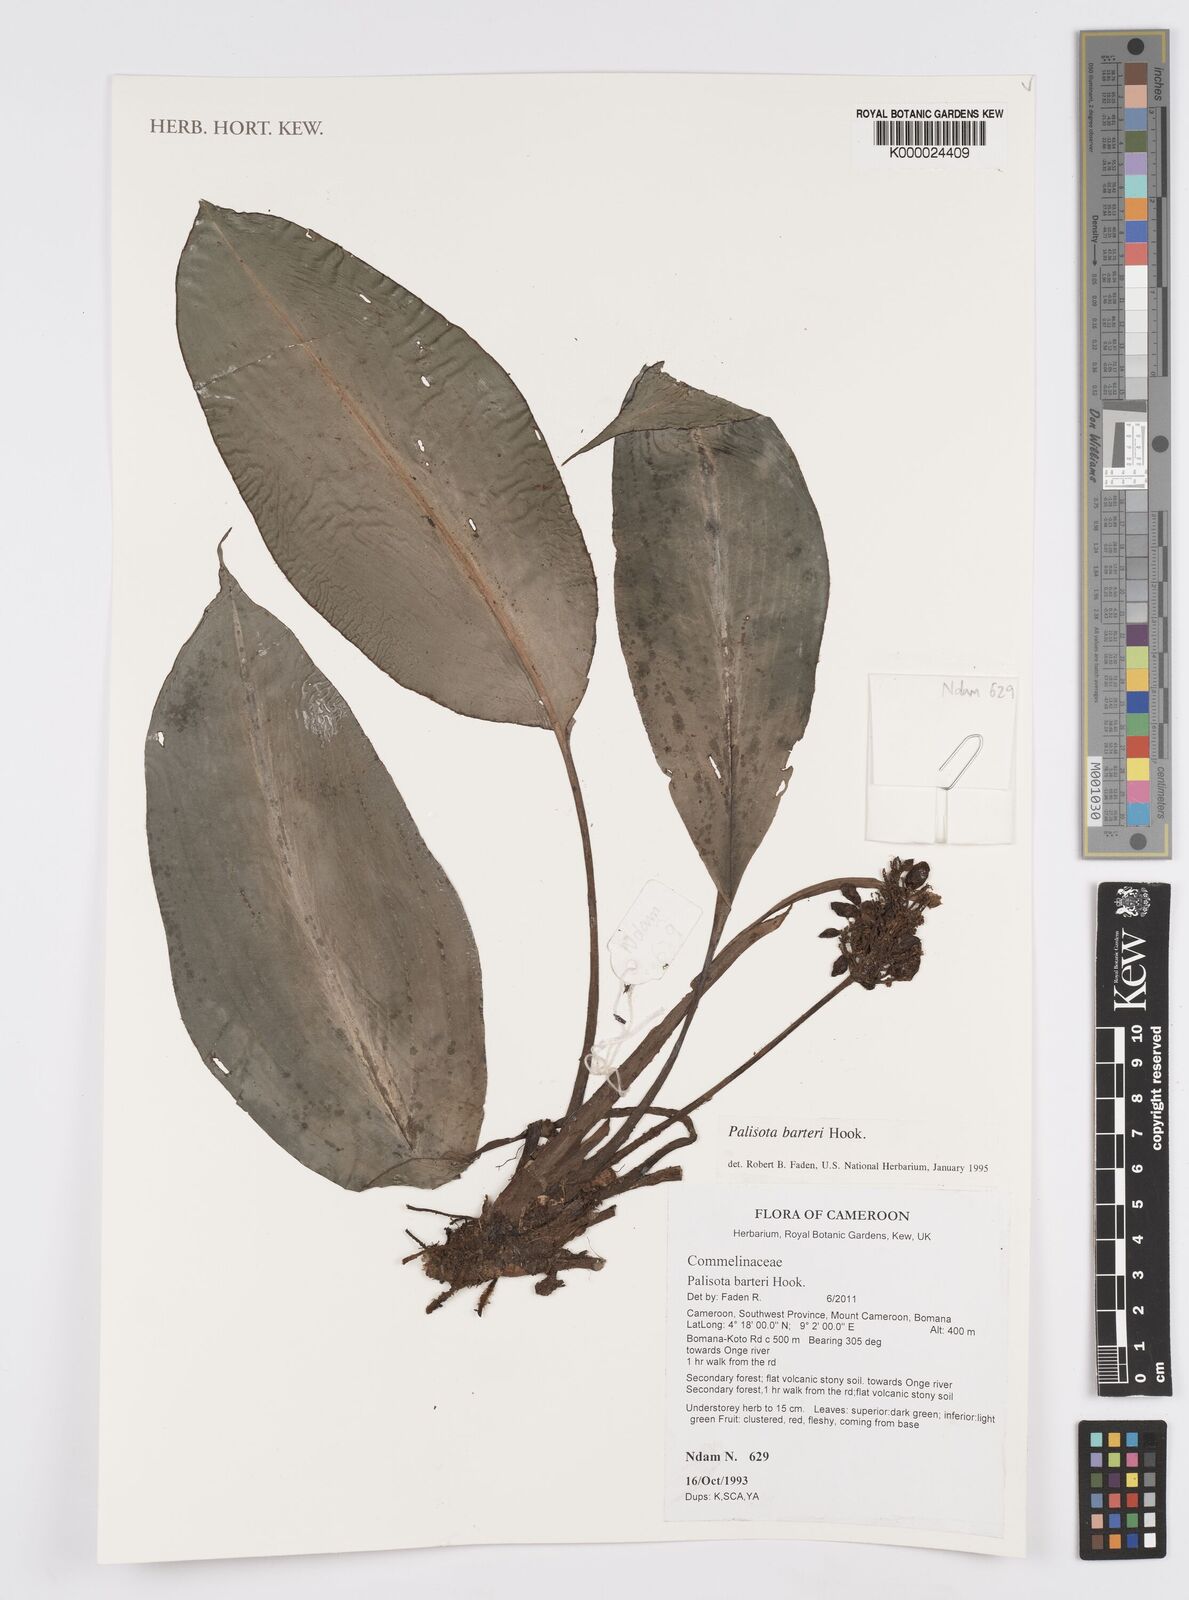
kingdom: Plantae
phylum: Tracheophyta
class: Liliopsida
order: Commelinales
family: Commelinaceae
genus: Palisota
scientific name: Palisota barteri
